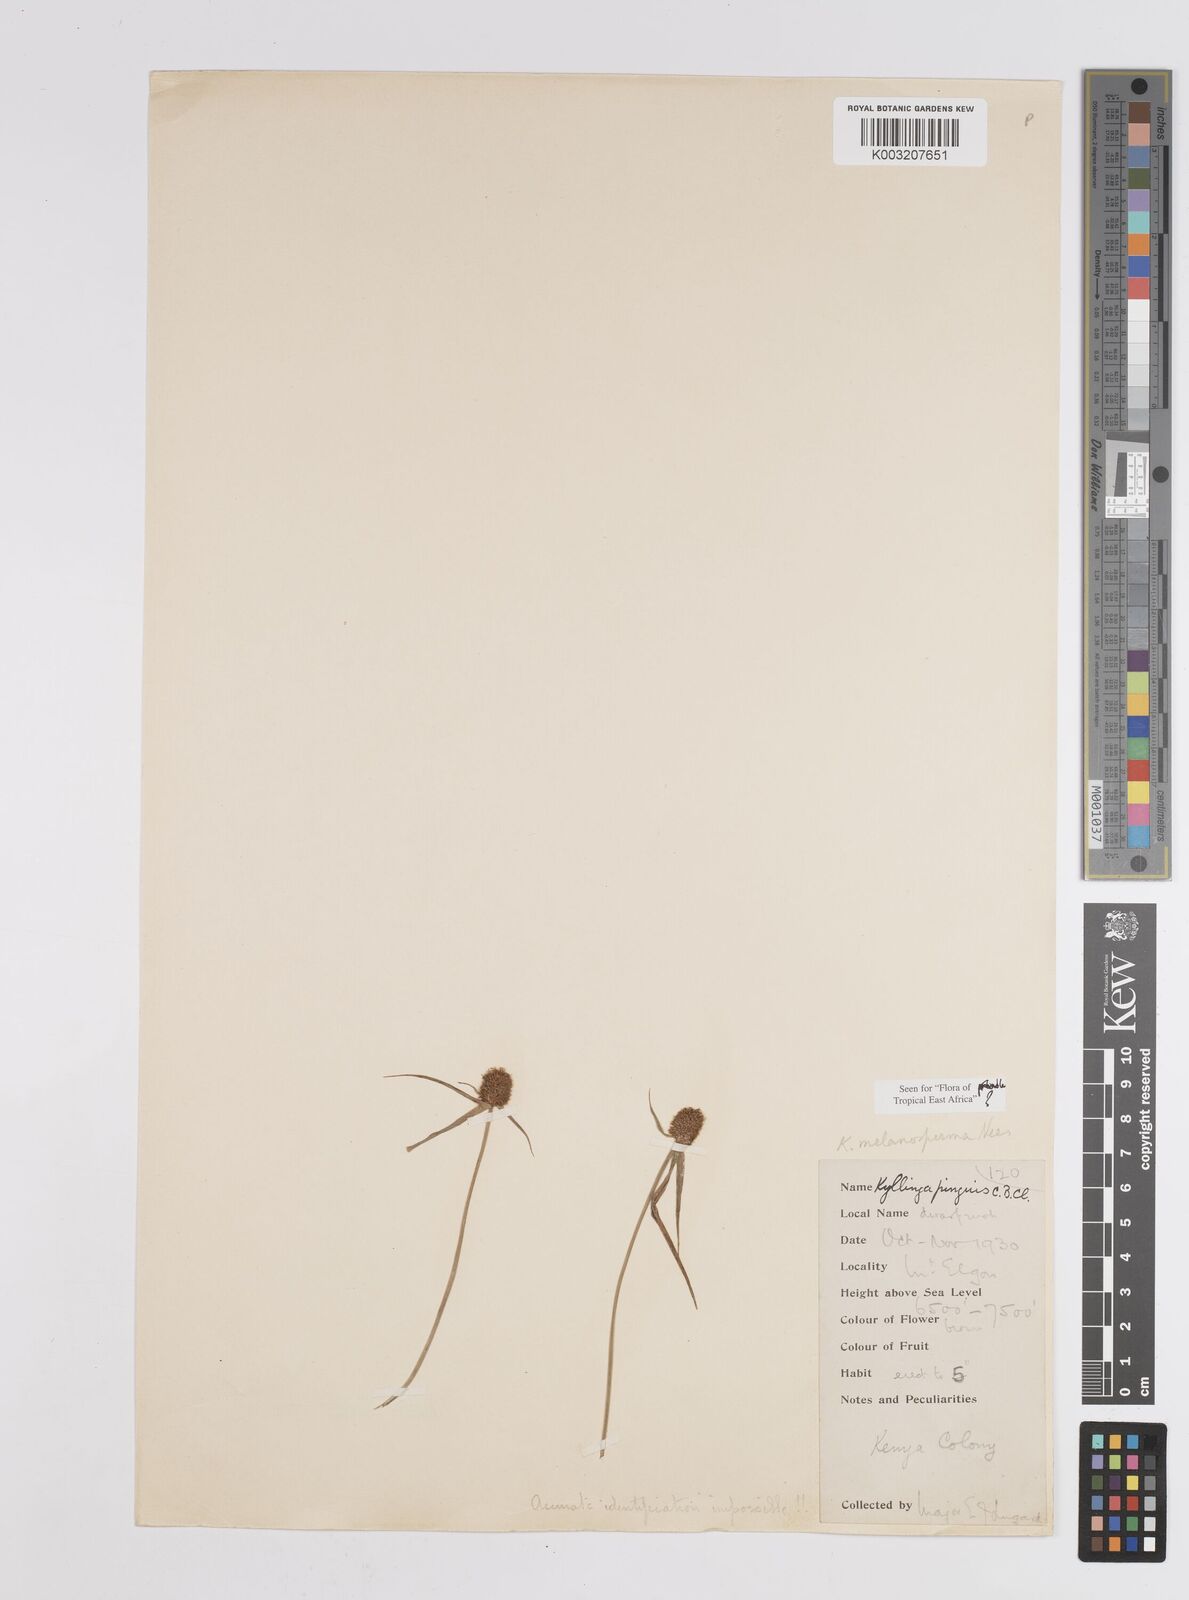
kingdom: Plantae
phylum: Tracheophyta
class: Liliopsida
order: Poales
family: Cyperaceae
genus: Cyperus
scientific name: Cyperus melanospermus
